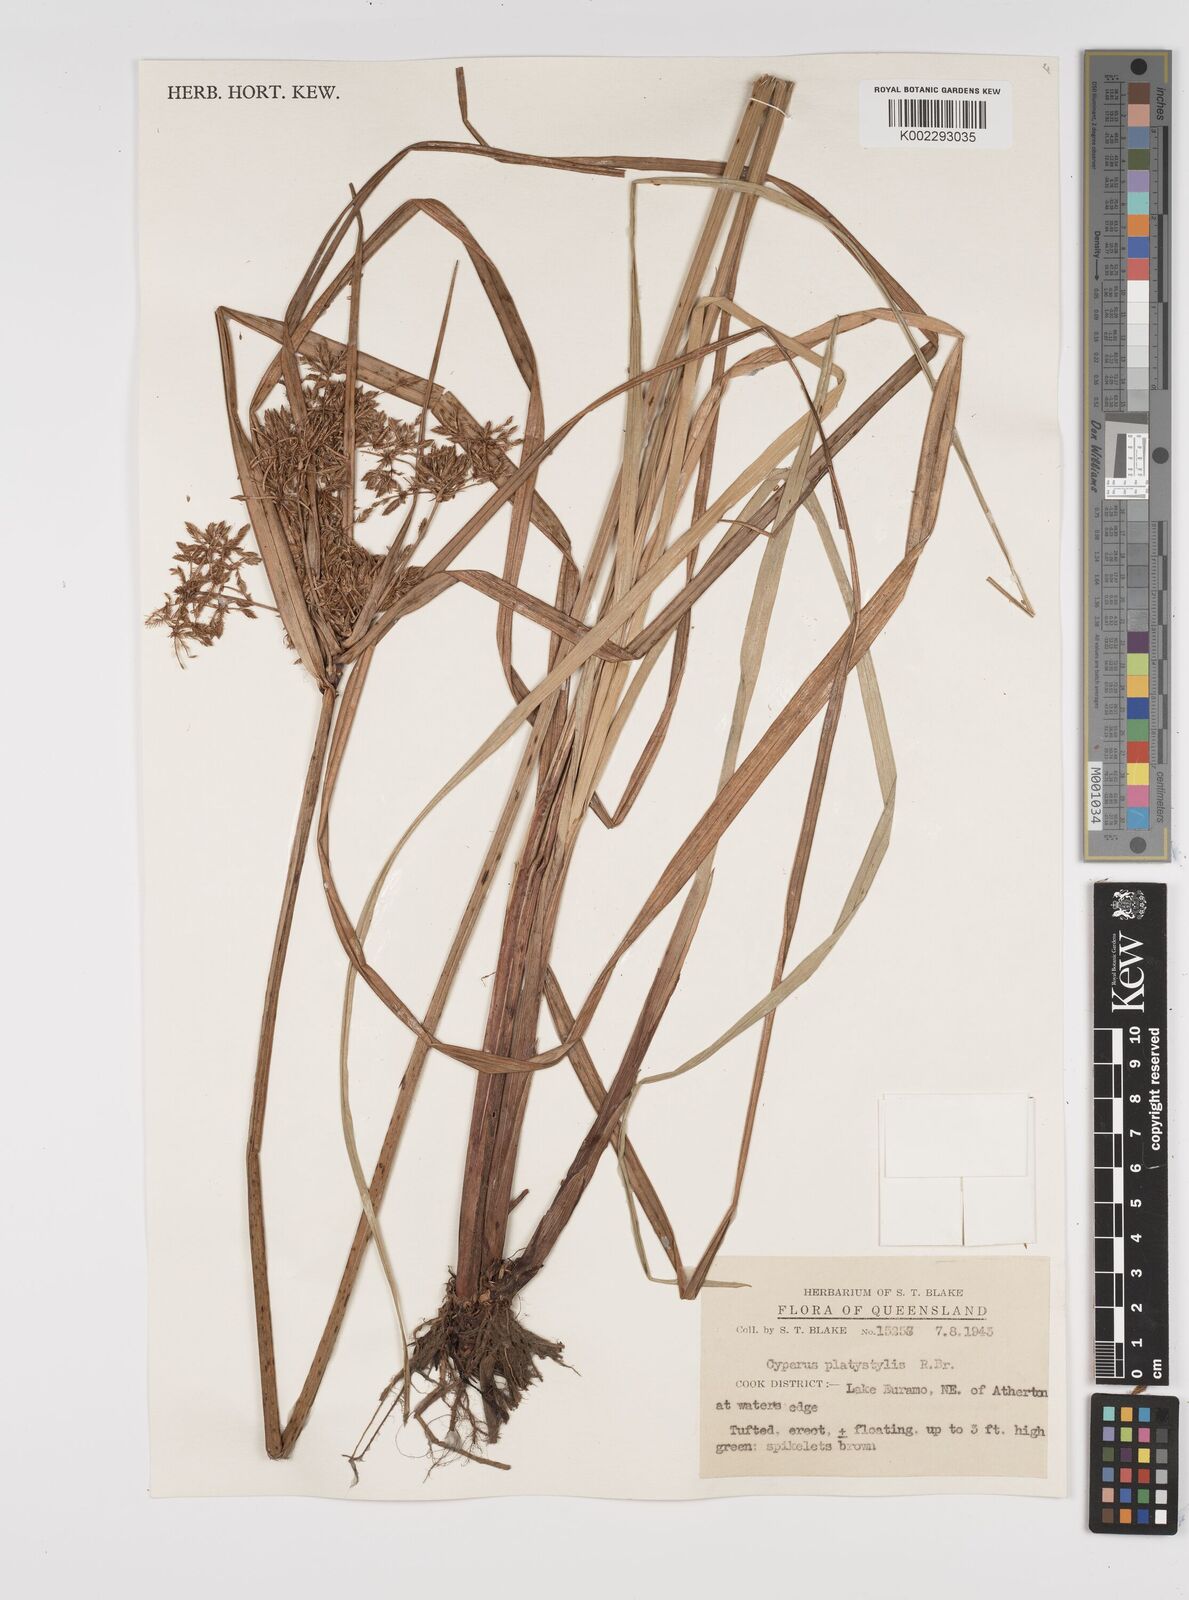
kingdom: Plantae
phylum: Tracheophyta
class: Liliopsida
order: Poales
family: Cyperaceae
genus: Cyperus
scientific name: Cyperus platystylis
